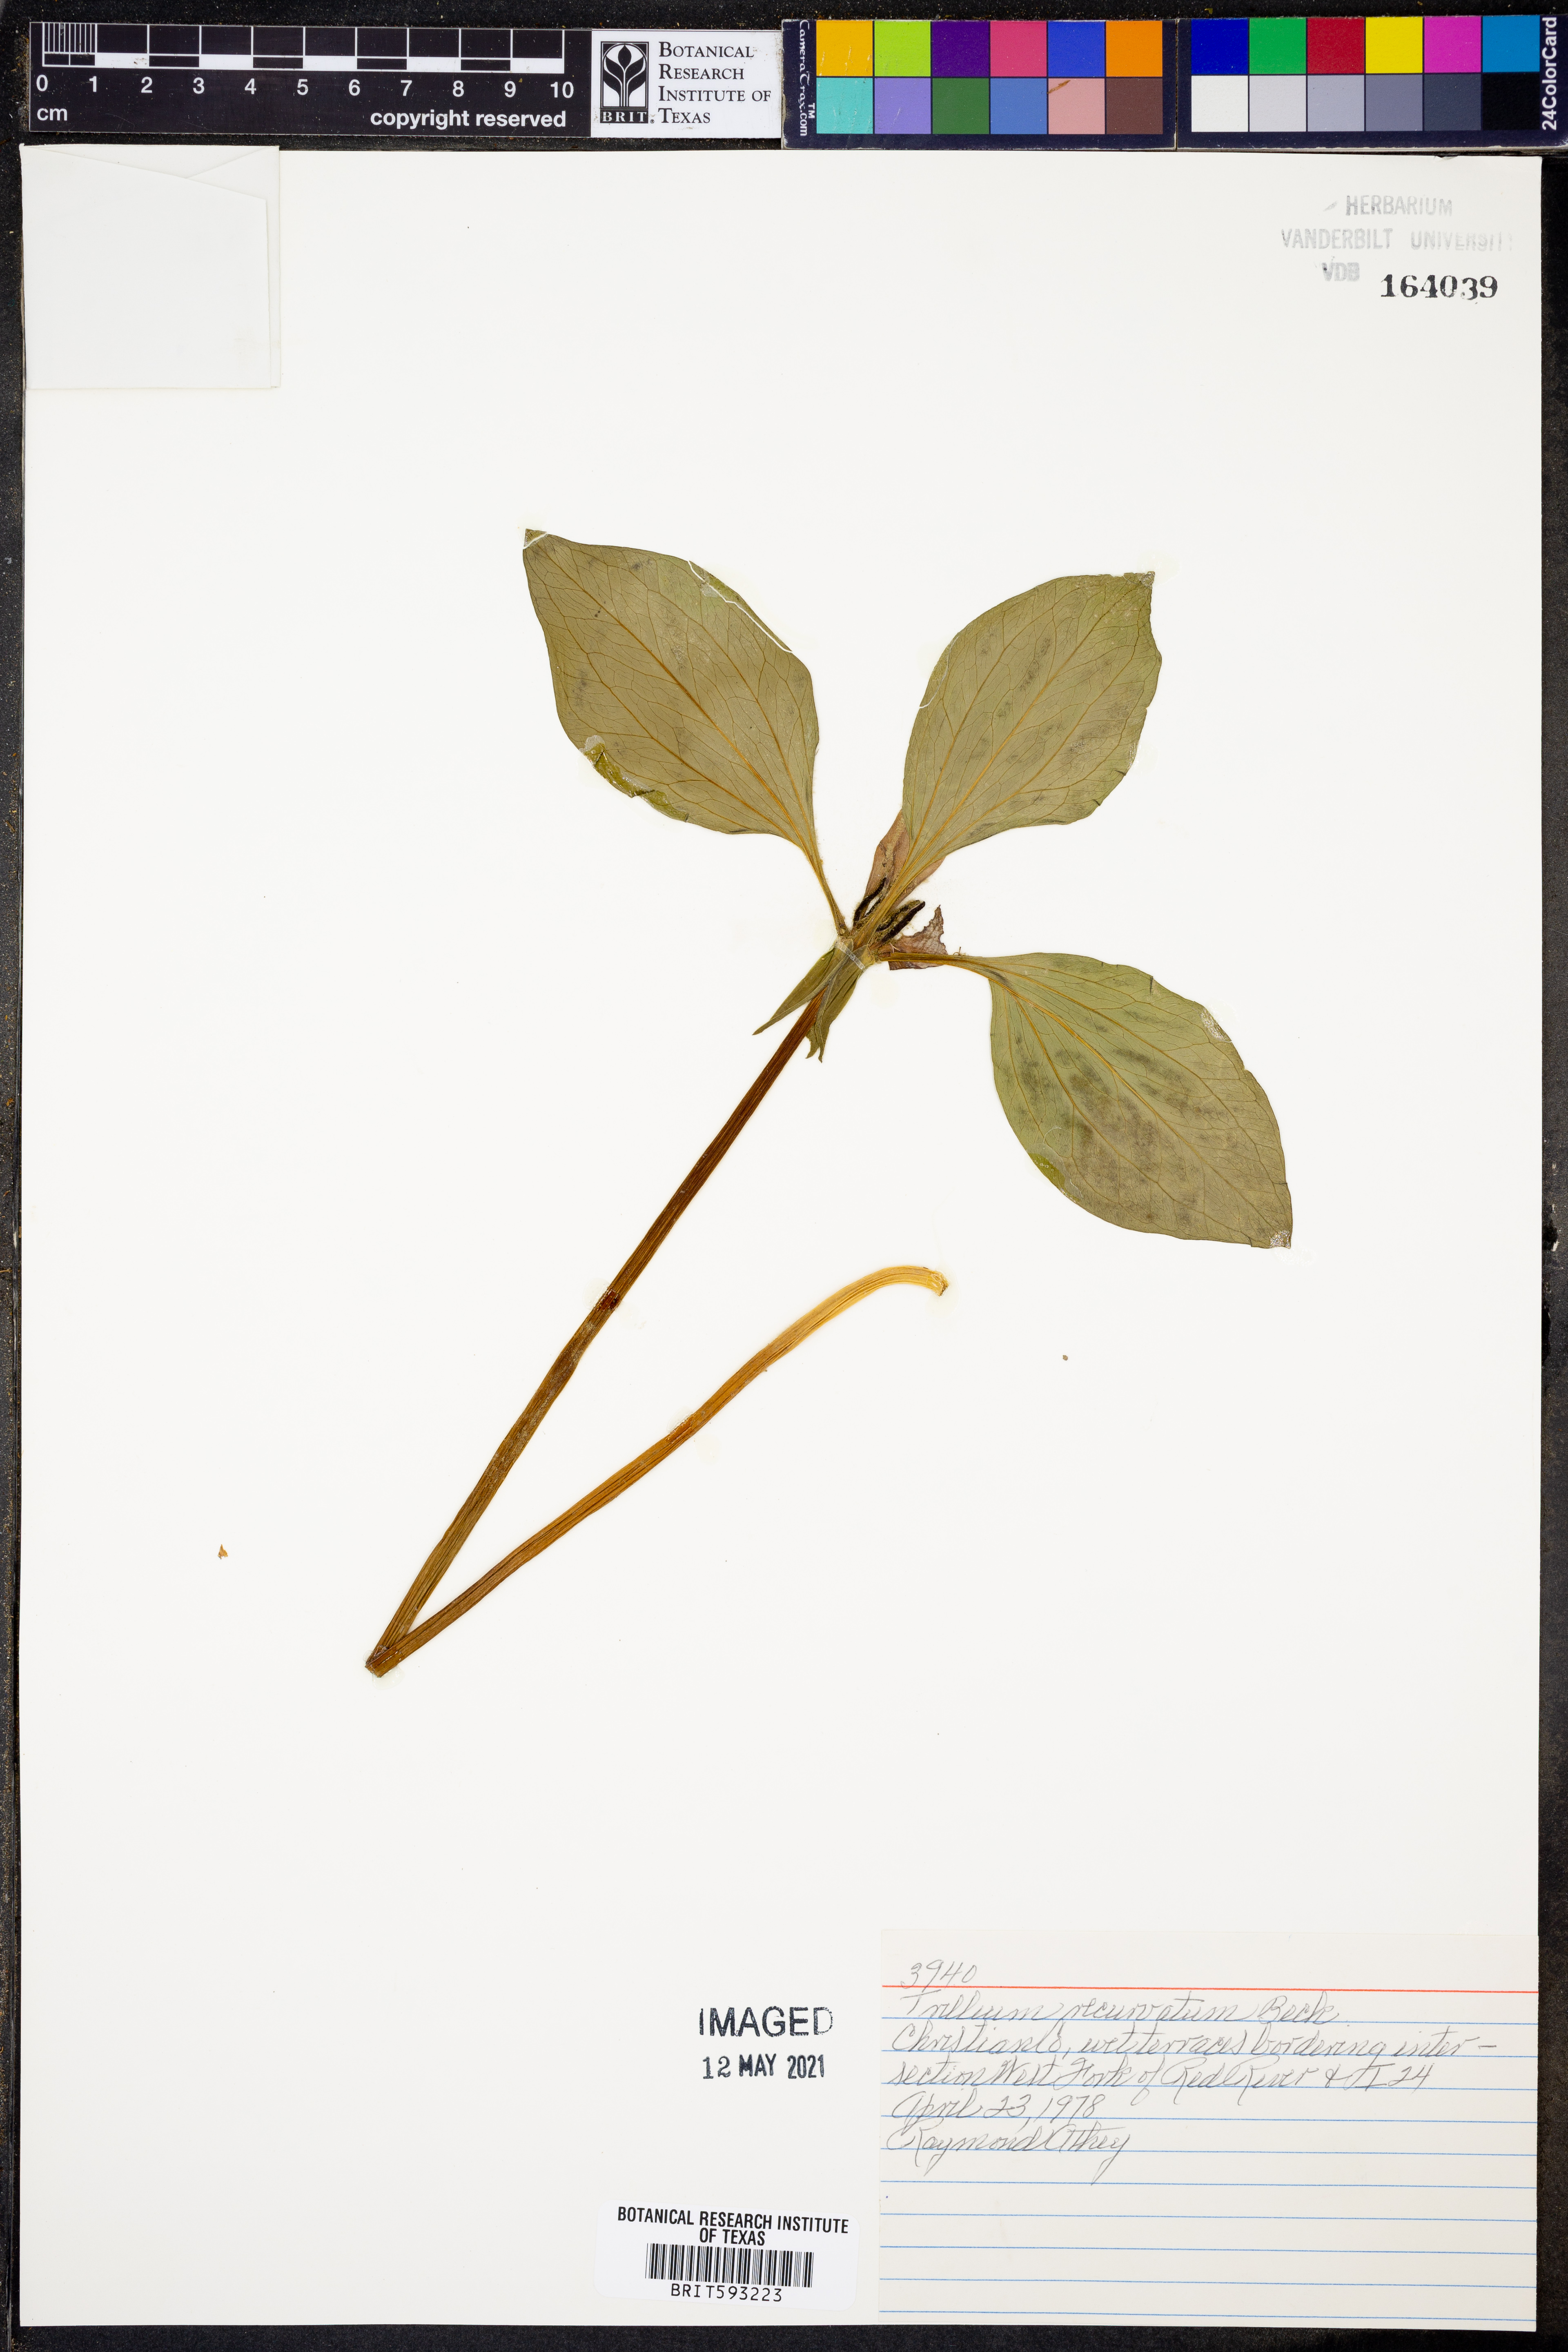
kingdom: Plantae
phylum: Tracheophyta
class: Liliopsida
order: Liliales
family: Melanthiaceae
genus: Trillium
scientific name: Trillium recurvatum
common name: Bloody butcher
